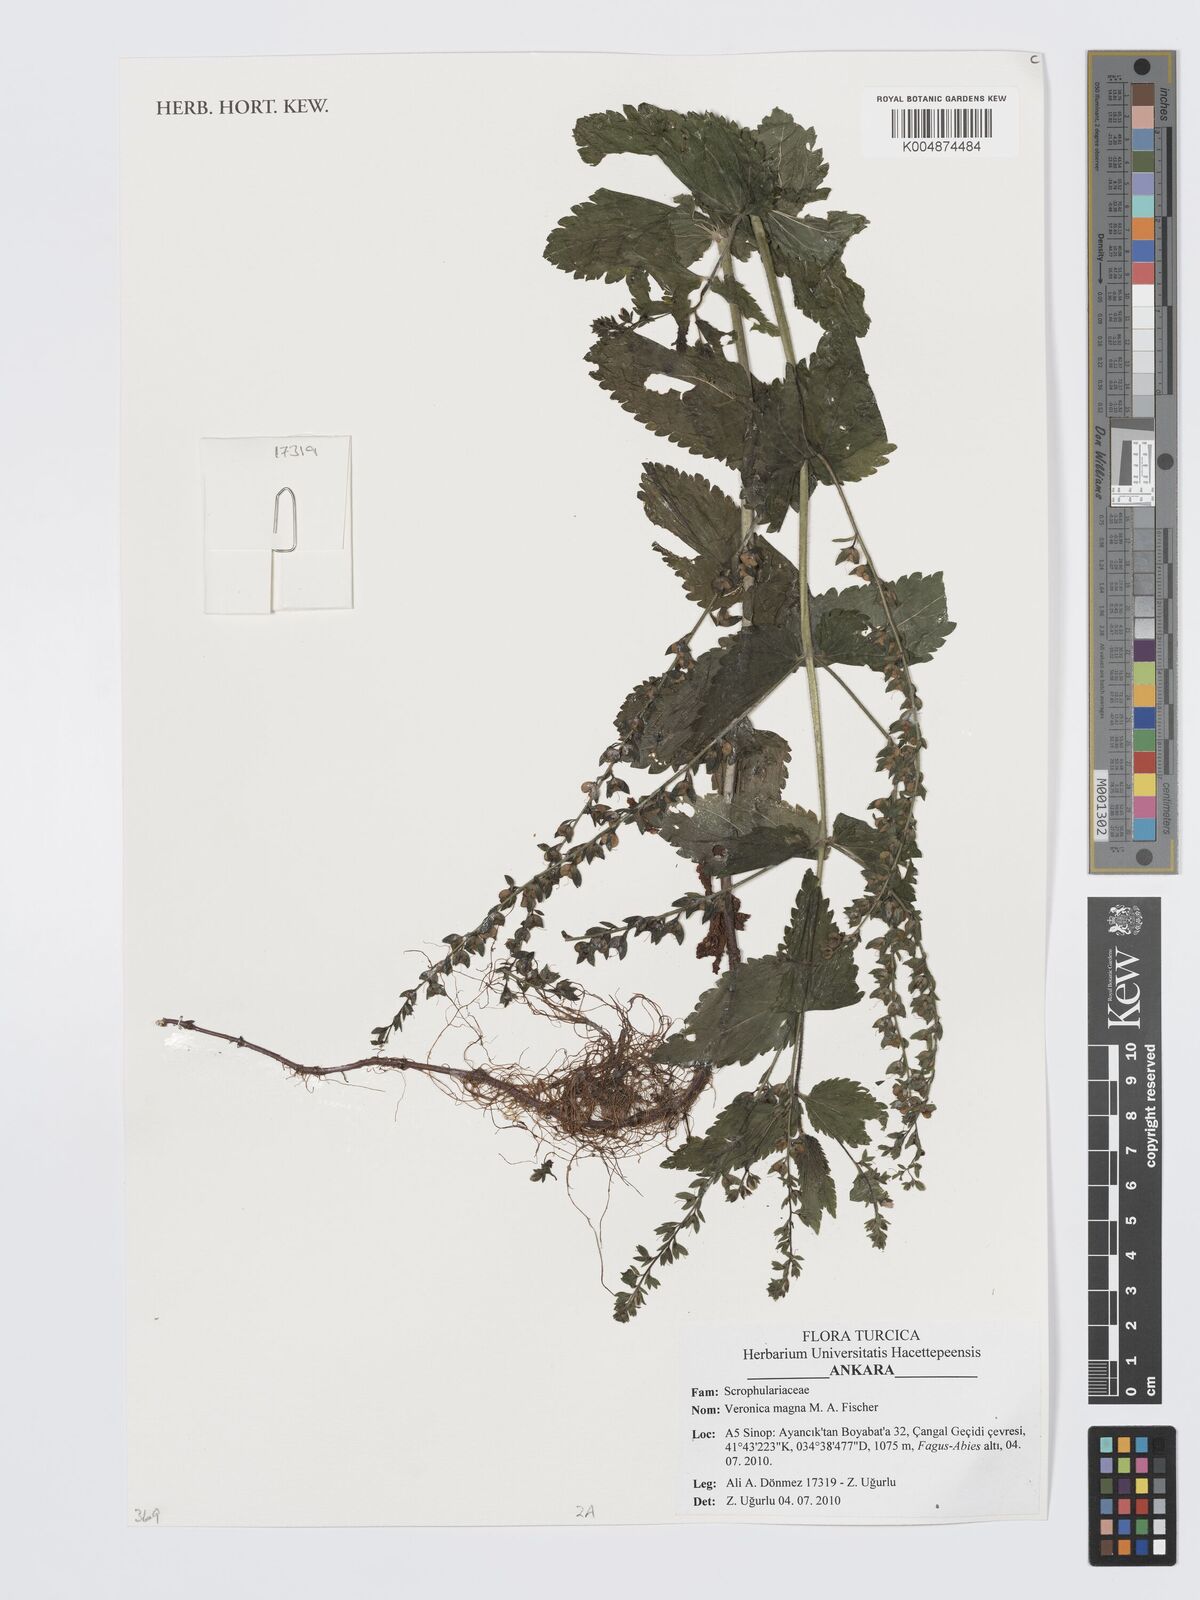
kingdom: Plantae
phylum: Tracheophyta
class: Magnoliopsida
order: Lamiales
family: Plantaginaceae
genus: Veronica
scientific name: Veronica magna
